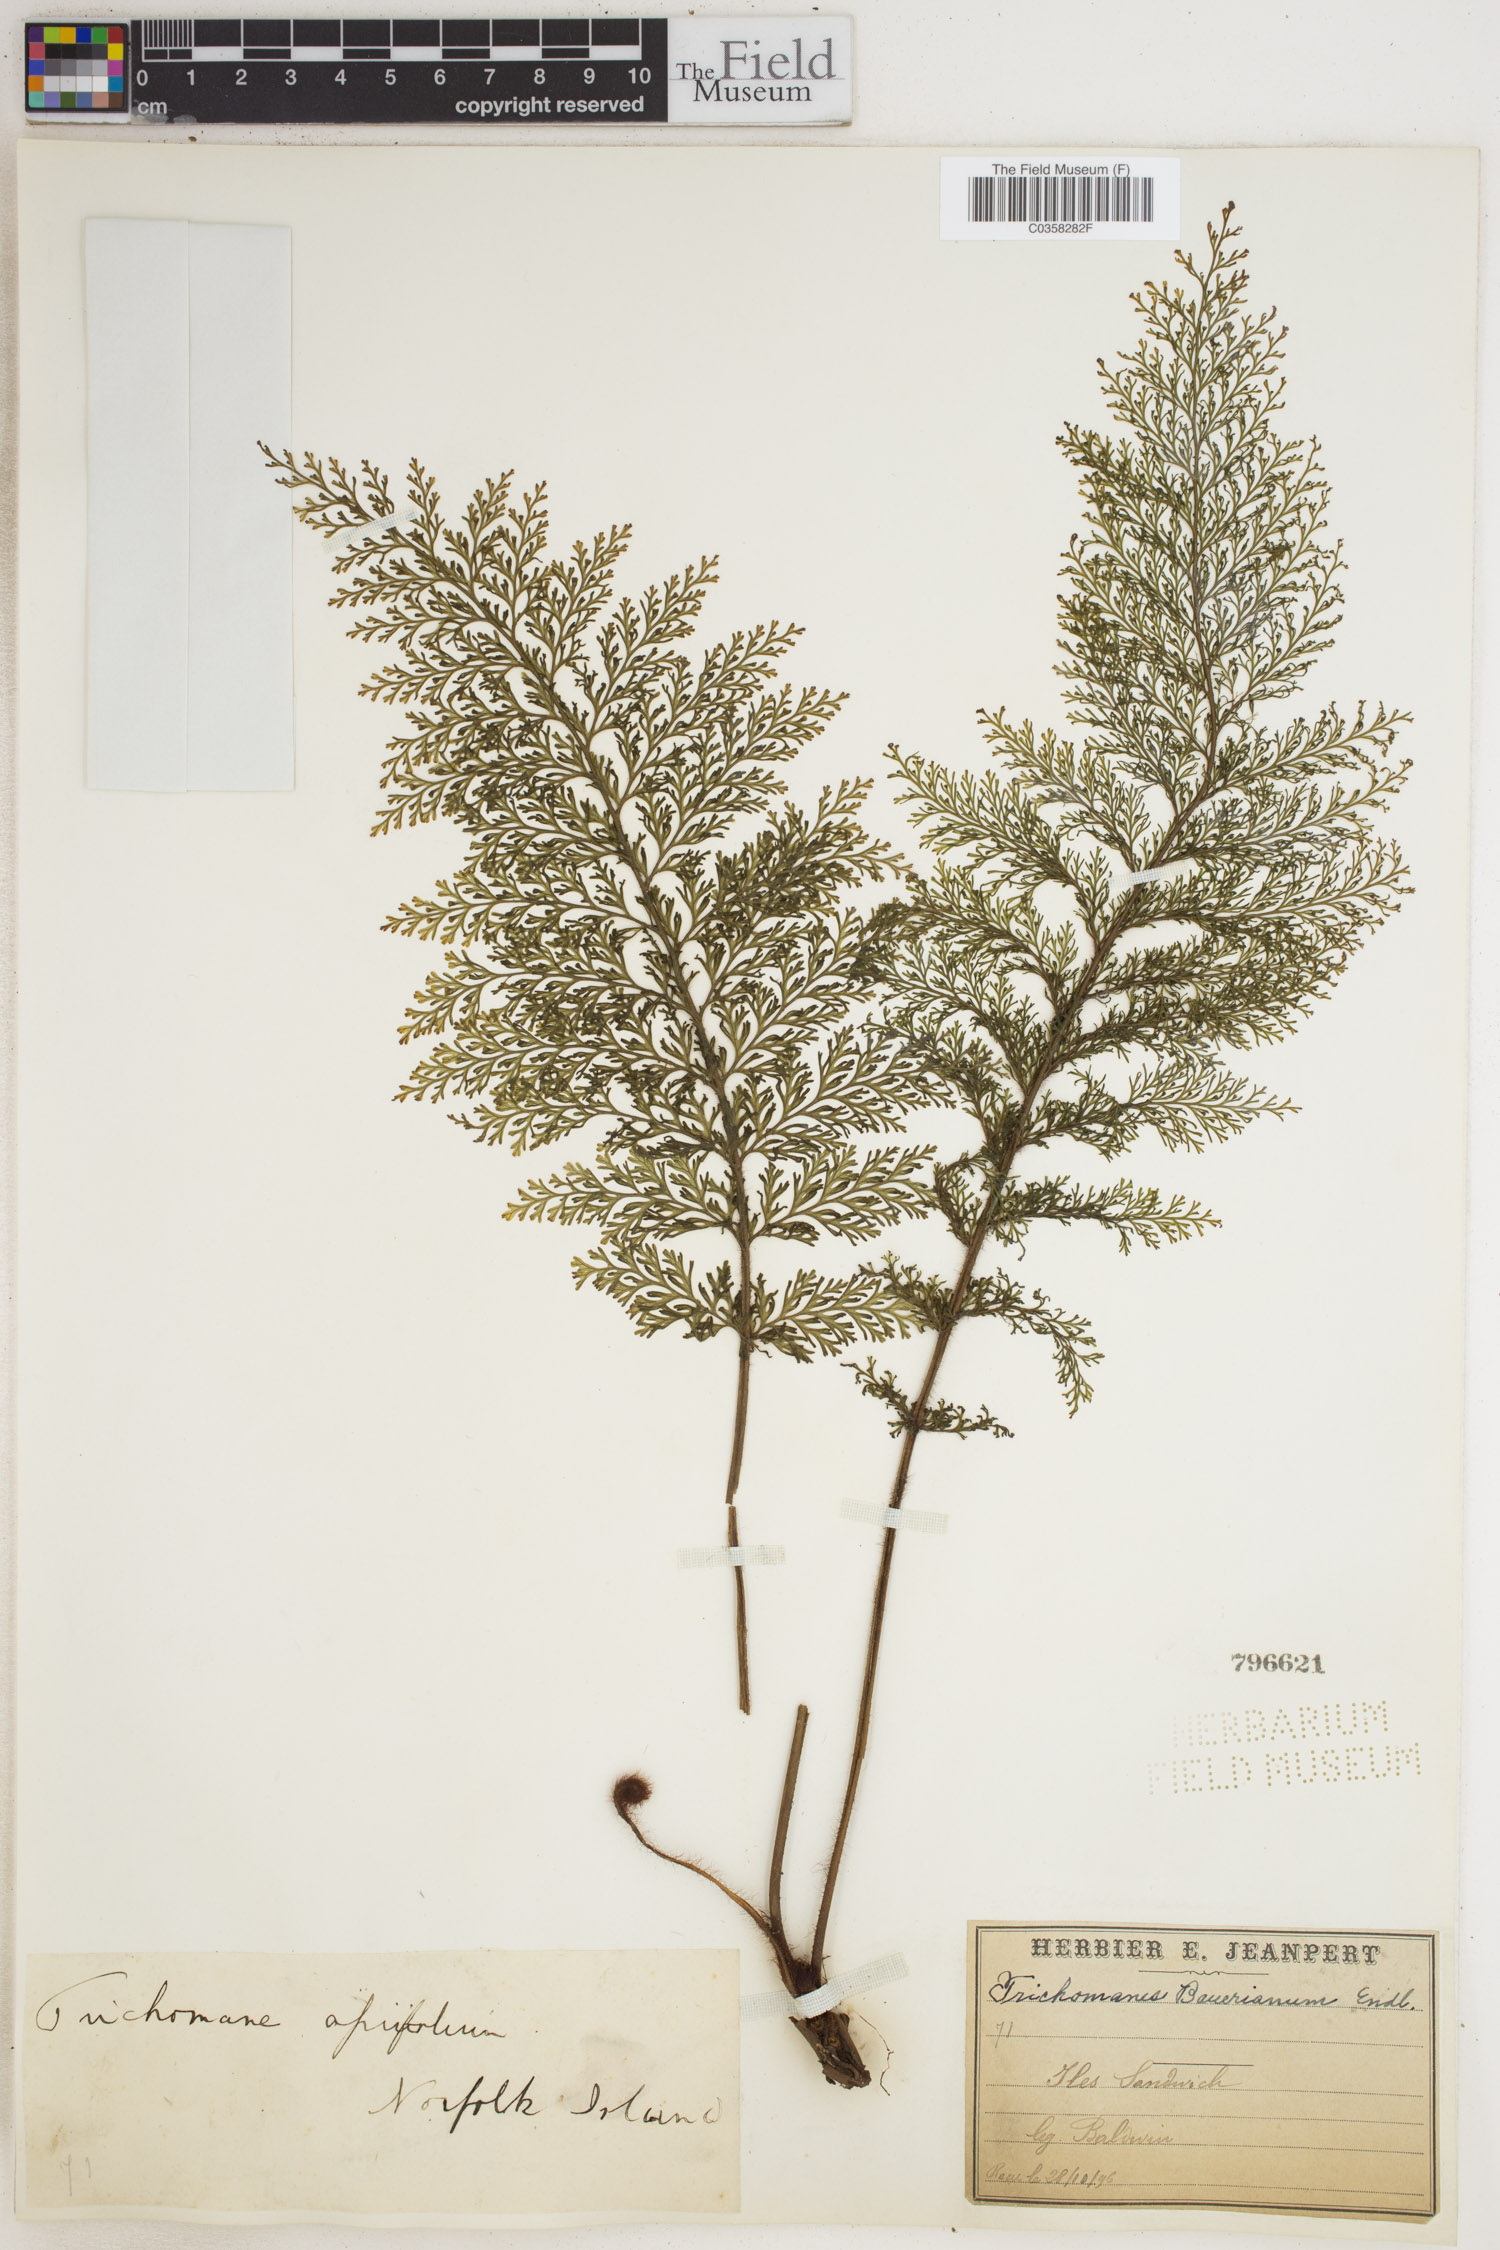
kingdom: Plantae
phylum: Tracheophyta
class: Polypodiopsida
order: Hymenophyllales
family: Hymenophyllaceae
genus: Callistopteris
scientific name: Callistopteris baueriana
